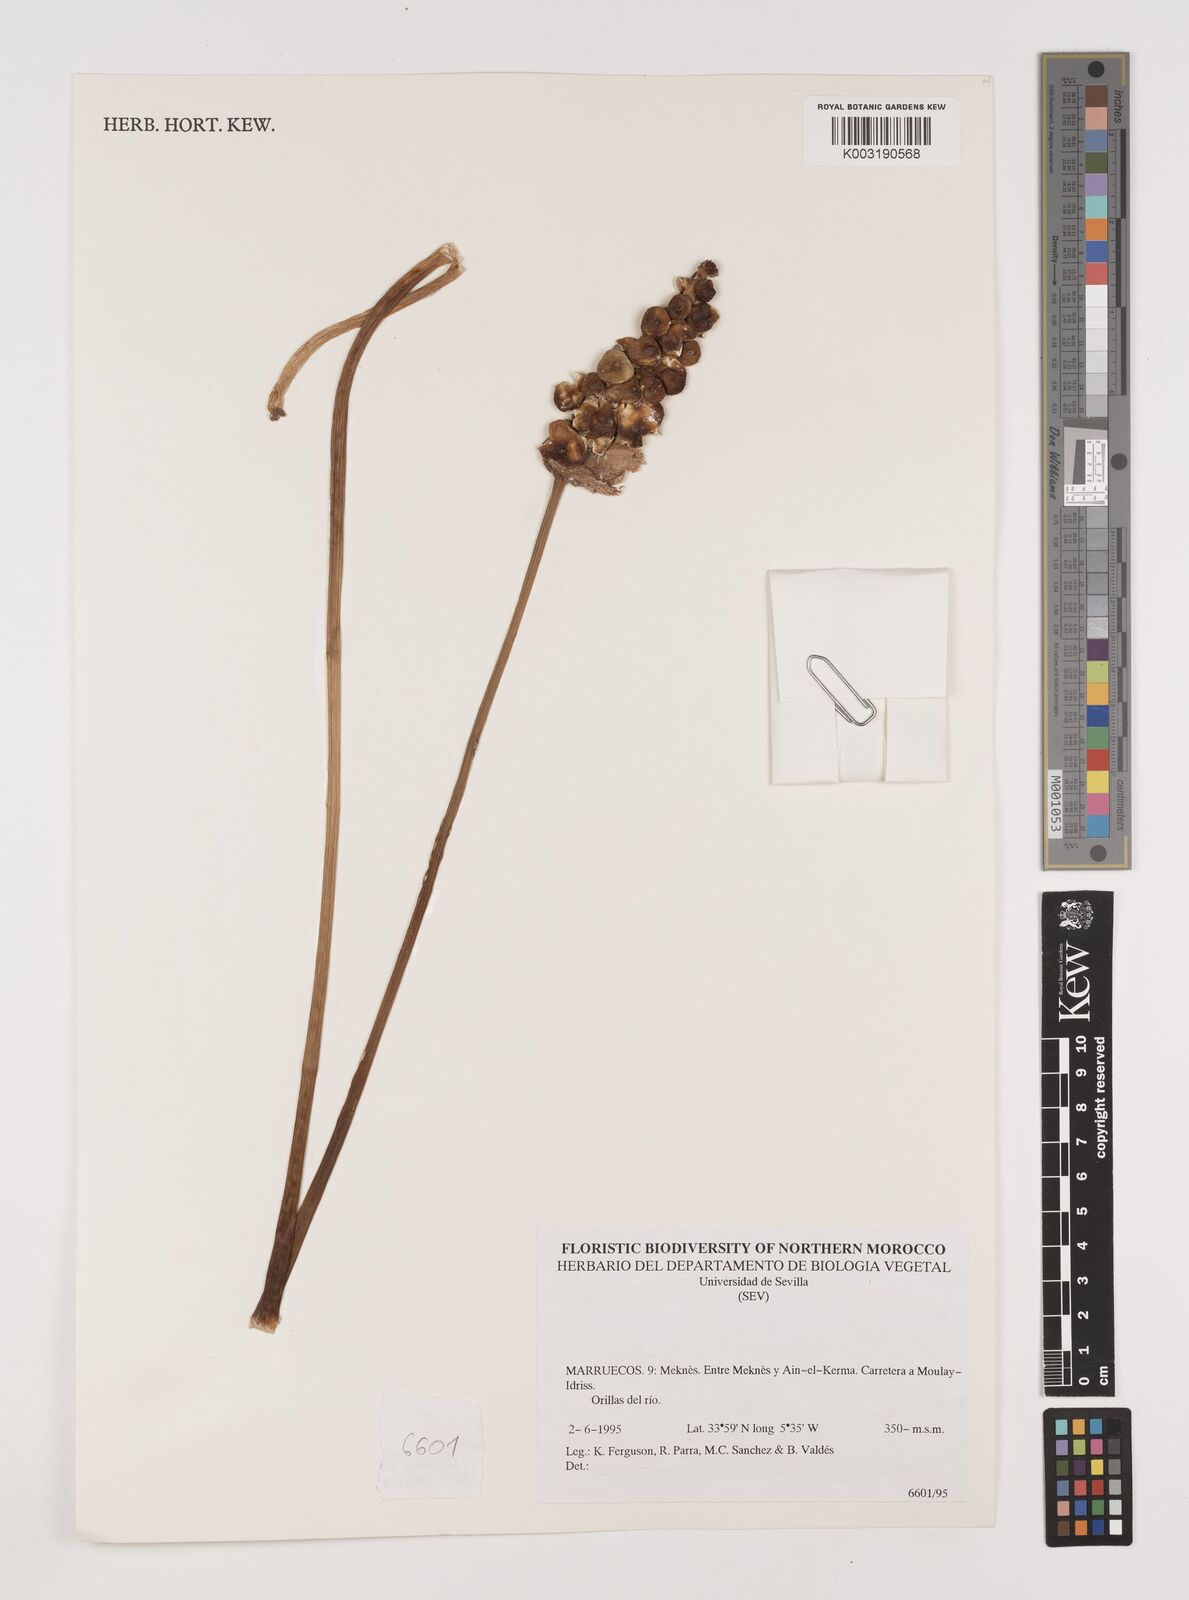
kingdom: Plantae
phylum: Tracheophyta
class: Liliopsida
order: Alismatales
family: Araceae
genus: Arum
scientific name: Arum italicum
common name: Italian lords-and-ladies
